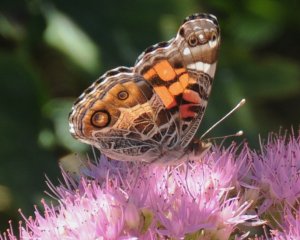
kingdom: Animalia
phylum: Arthropoda
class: Insecta
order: Lepidoptera
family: Nymphalidae
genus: Vanessa
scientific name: Vanessa virginiensis
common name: American Lady
